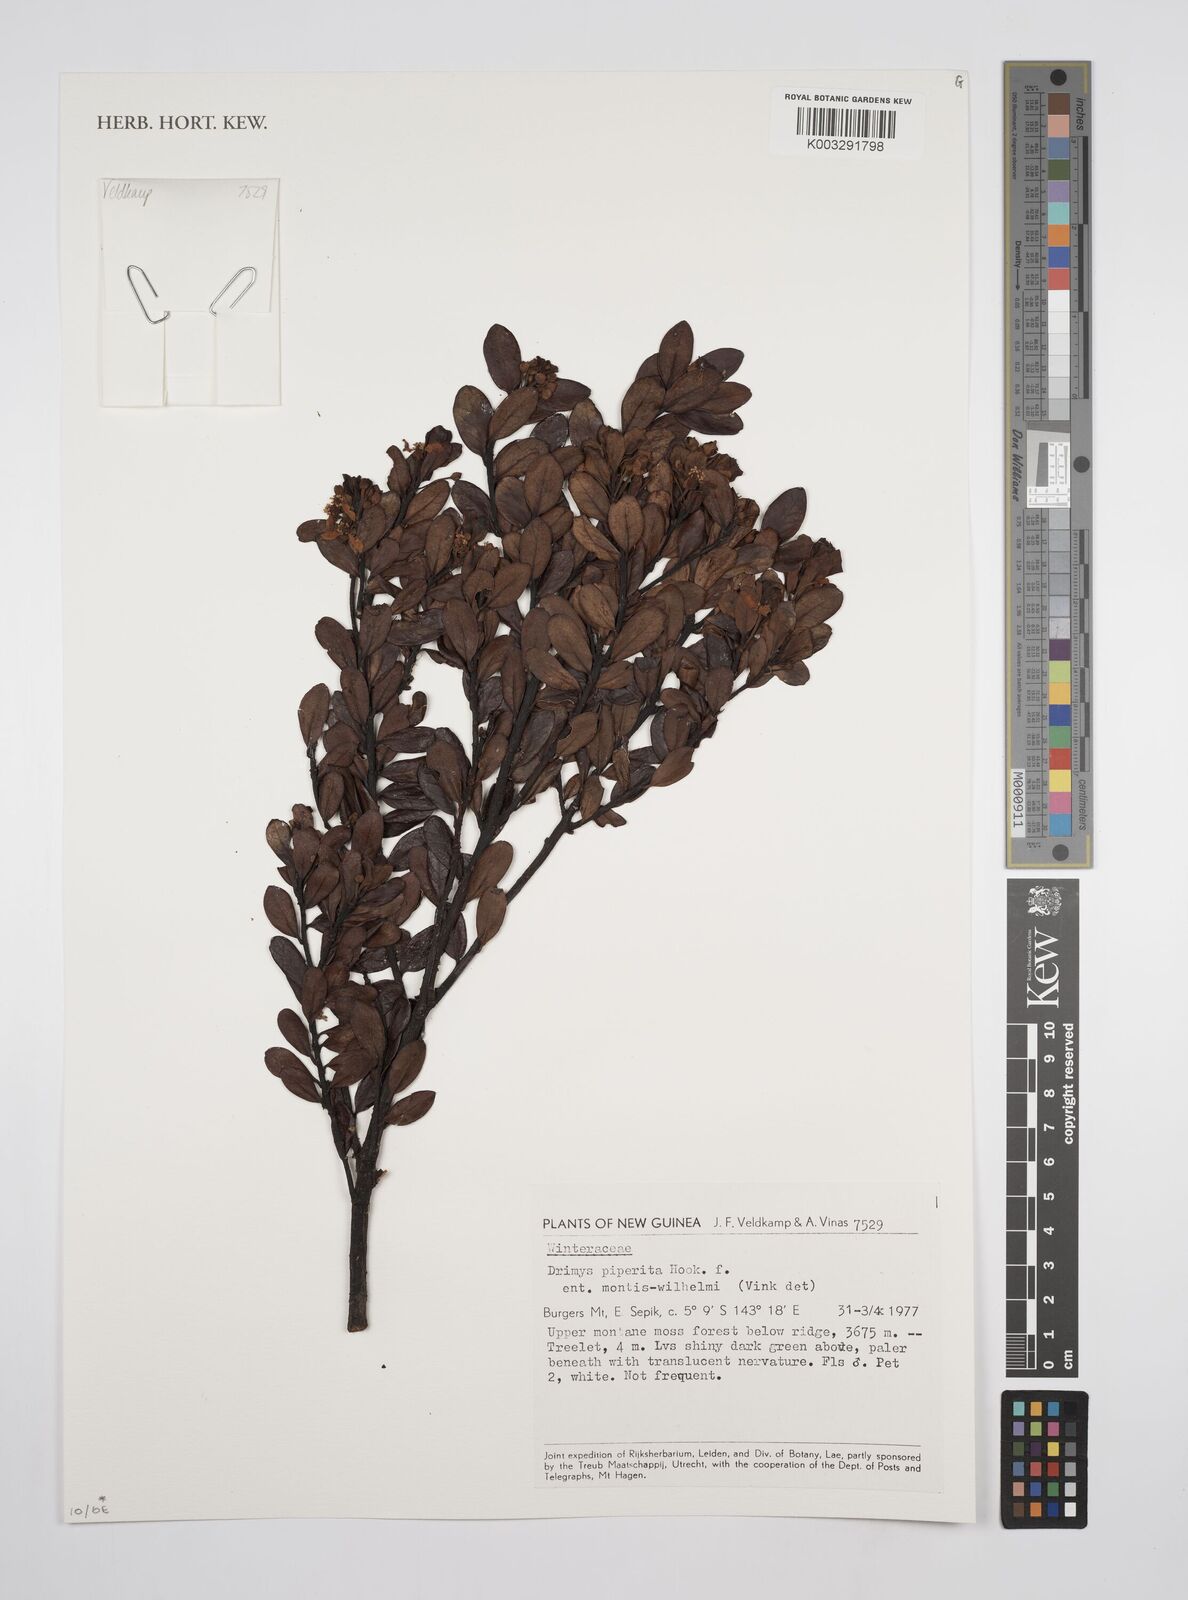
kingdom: Plantae
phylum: Tracheophyta
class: Magnoliopsida
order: Canellales
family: Winteraceae
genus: Drimys
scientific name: Drimys piperita
